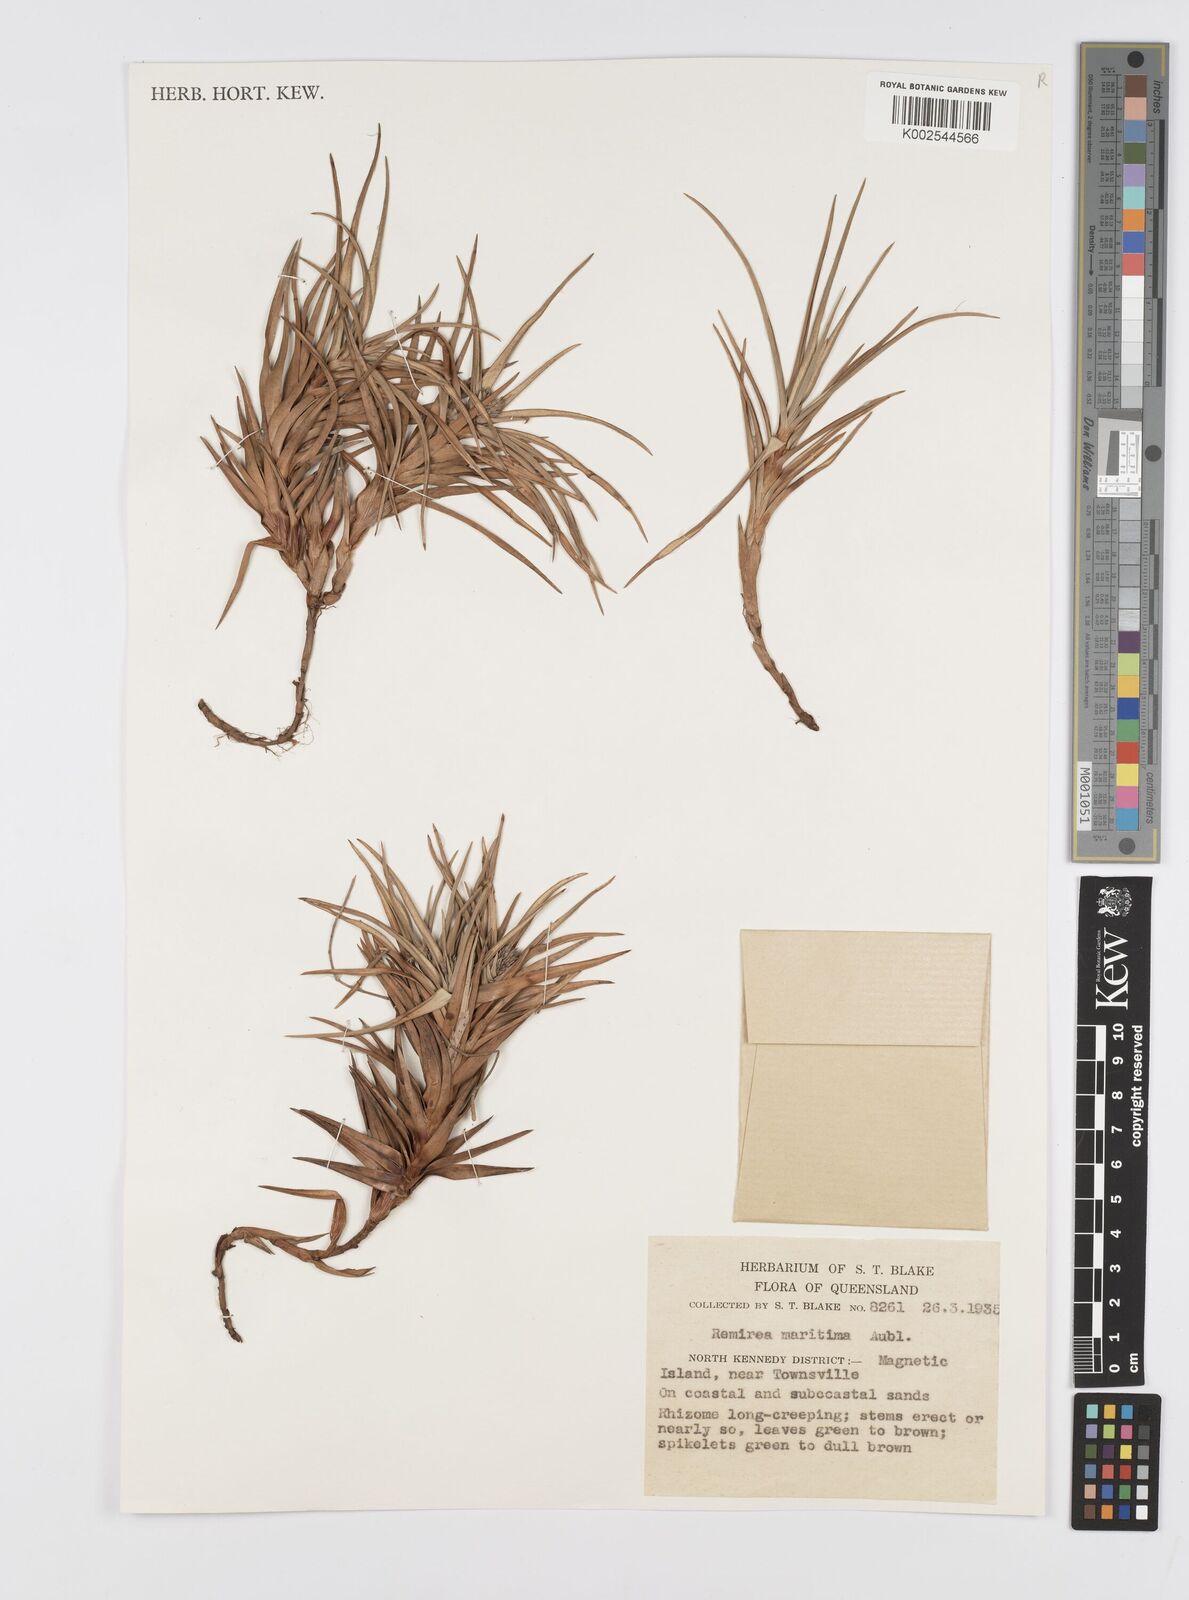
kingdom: Plantae
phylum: Tracheophyta
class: Liliopsida
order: Poales
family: Cyperaceae
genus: Cyperus
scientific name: Cyperus
